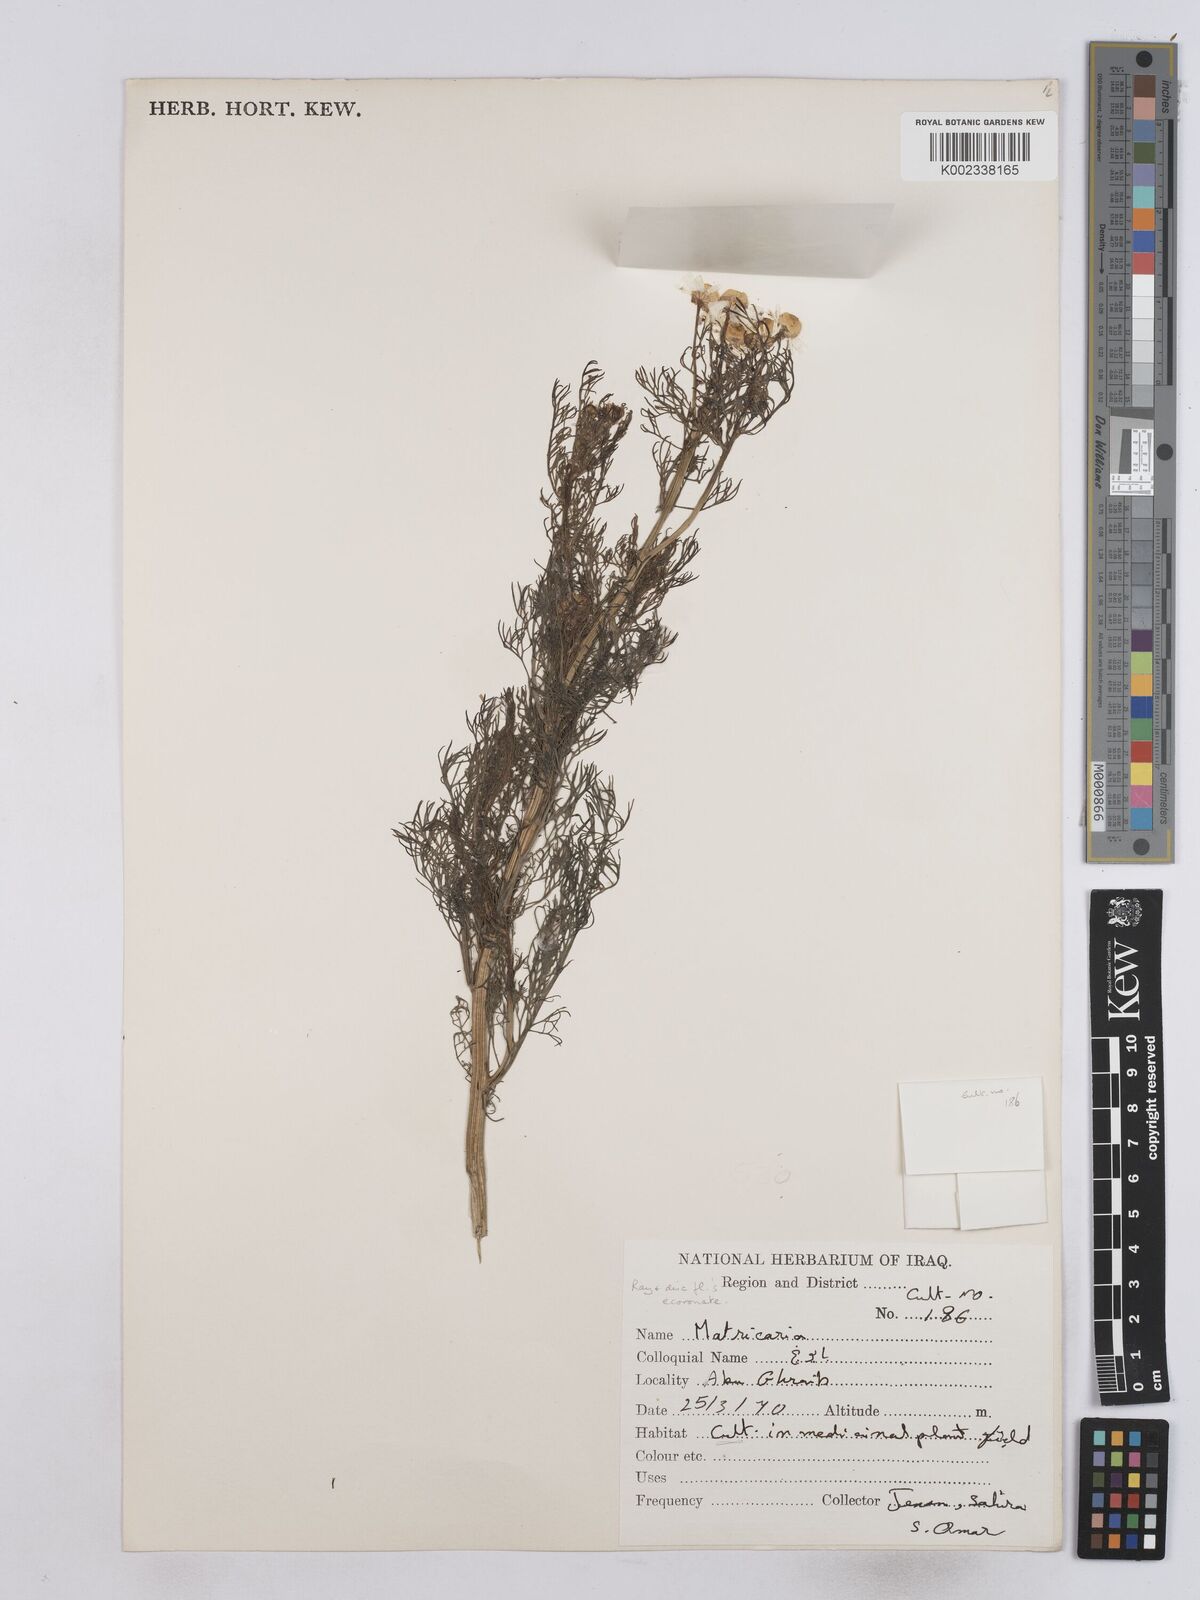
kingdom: Plantae
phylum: Tracheophyta
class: Magnoliopsida
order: Asterales
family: Asteraceae
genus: Matricaria
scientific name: Matricaria
